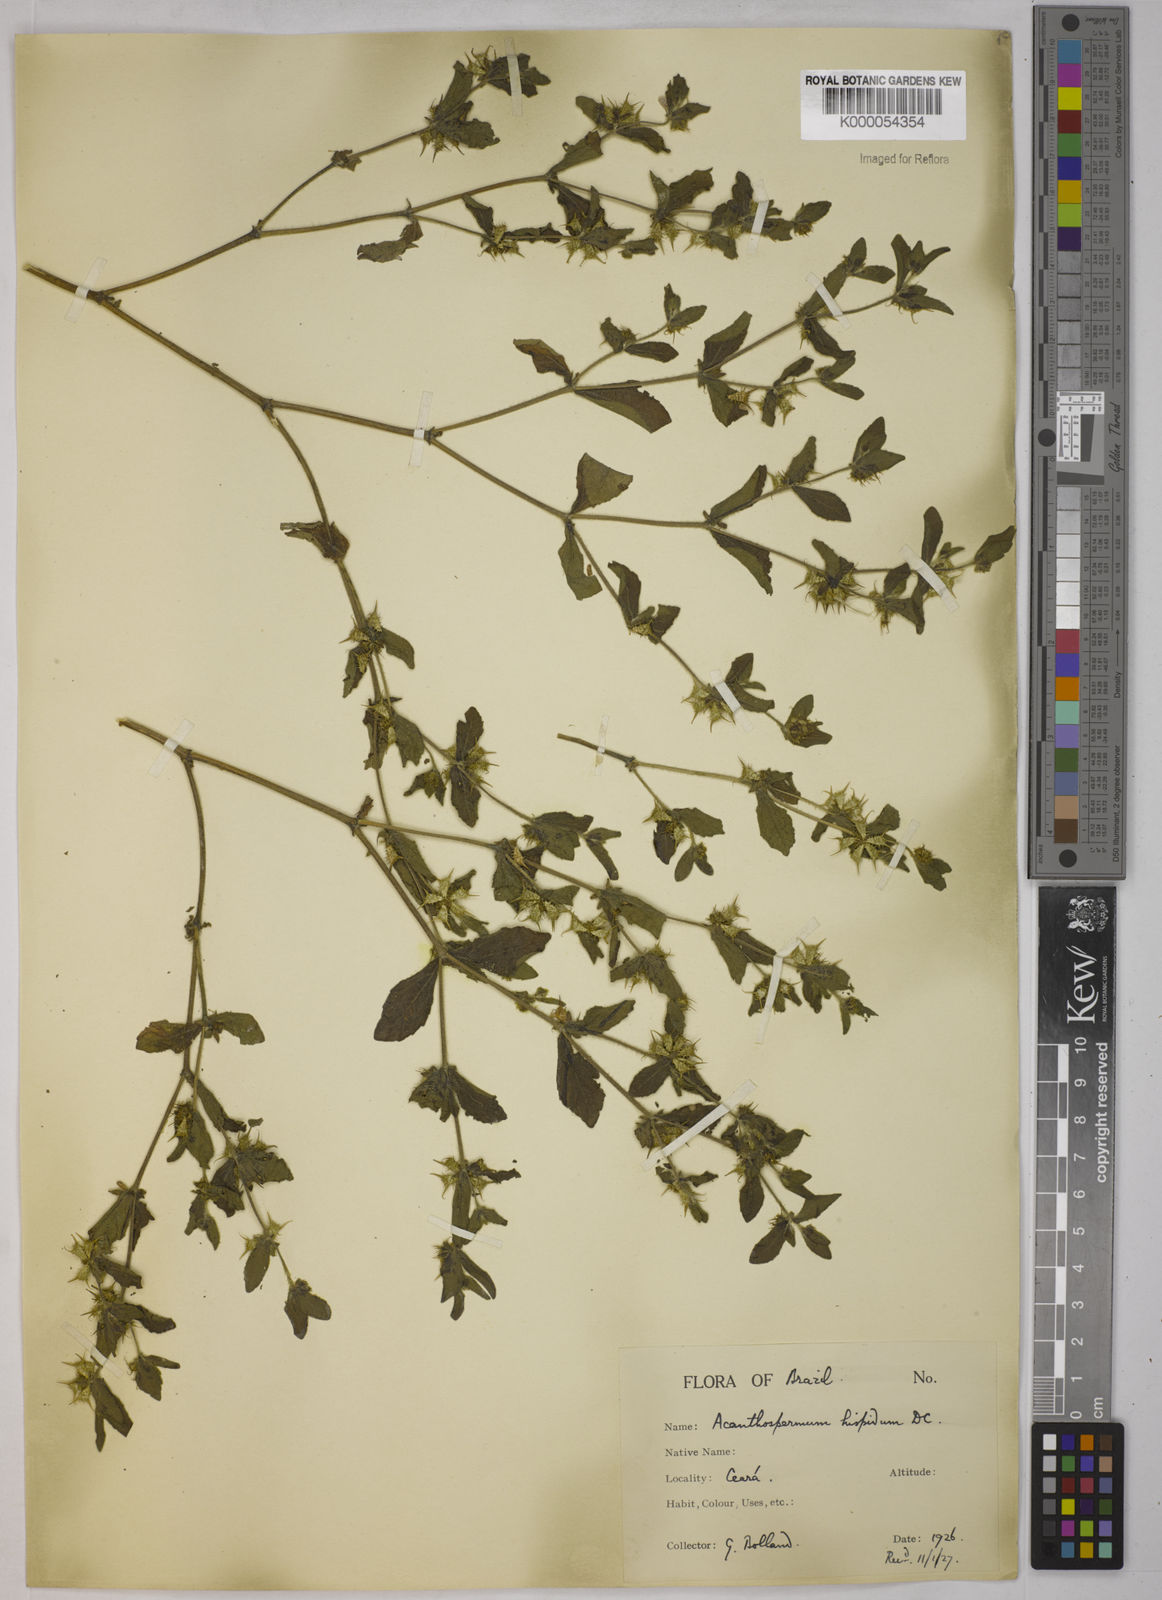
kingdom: Plantae
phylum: Tracheophyta
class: Magnoliopsida
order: Asterales
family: Asteraceae
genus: Acanthospermum
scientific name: Acanthospermum hispidum
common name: Hispid starbur
